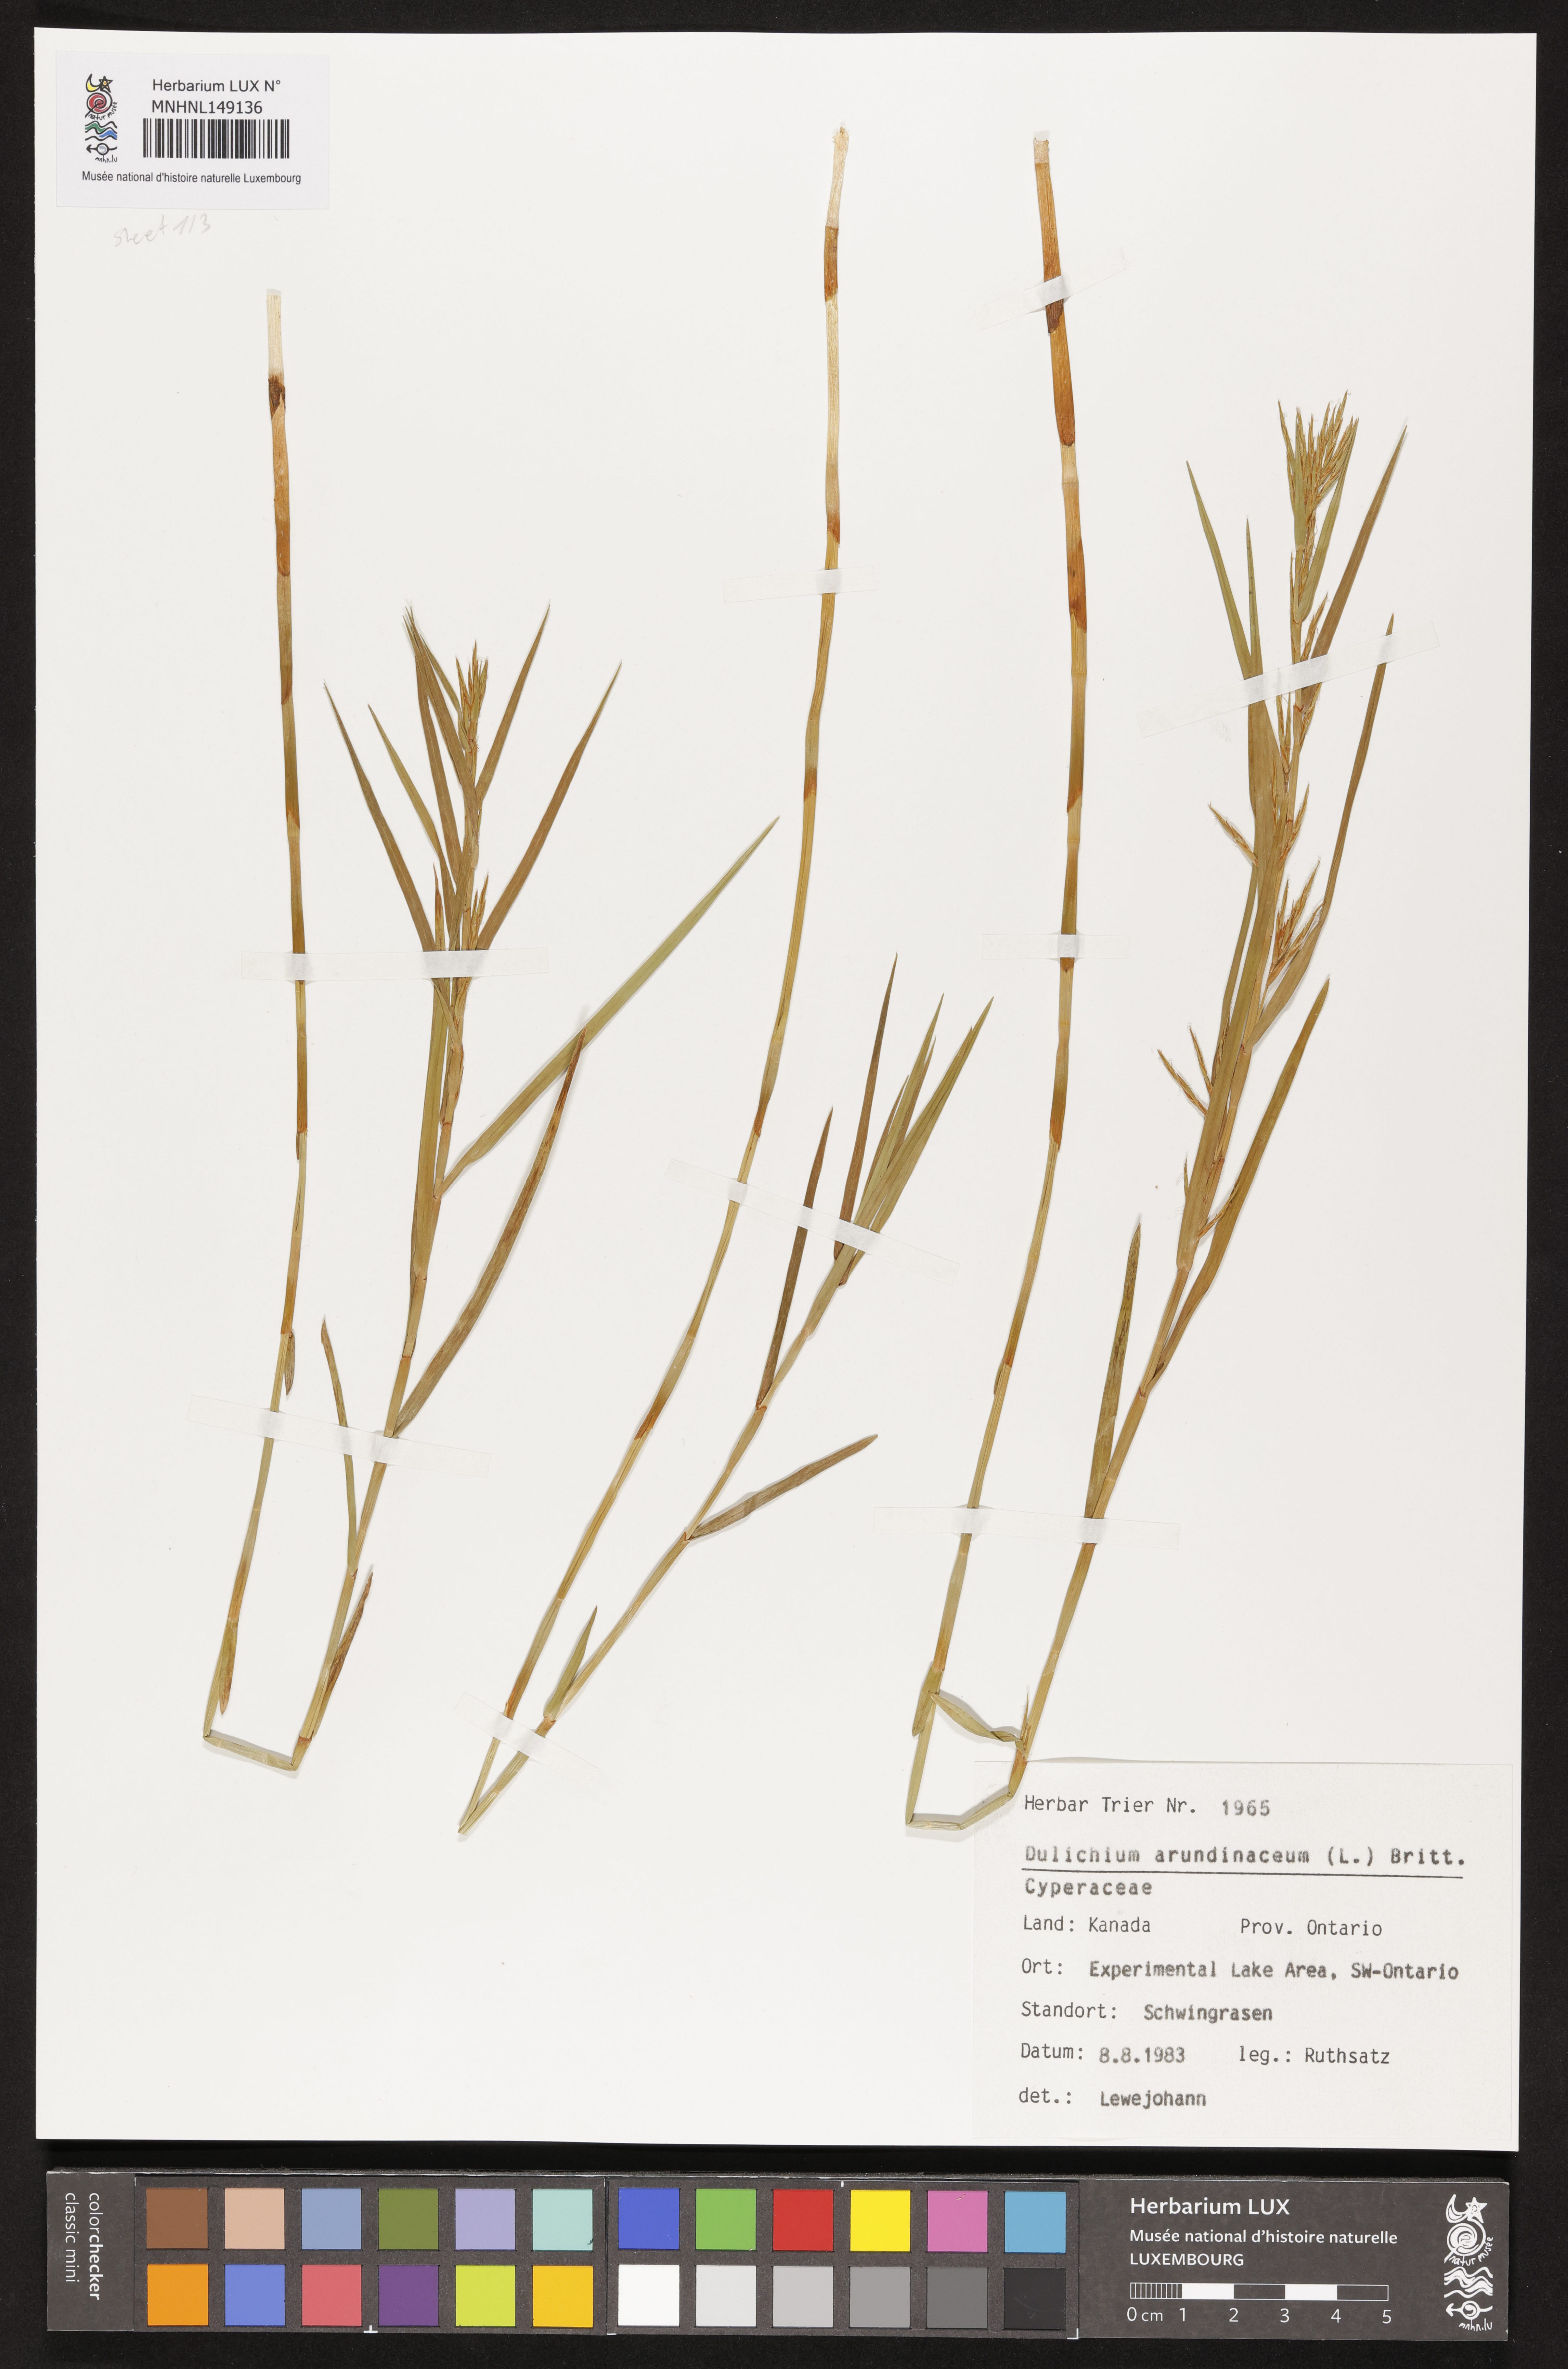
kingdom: Plantae
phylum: Tracheophyta
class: Liliopsida
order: Poales
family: Cyperaceae
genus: Dulichium
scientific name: Dulichium arundinaceum
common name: Three-way sedge
